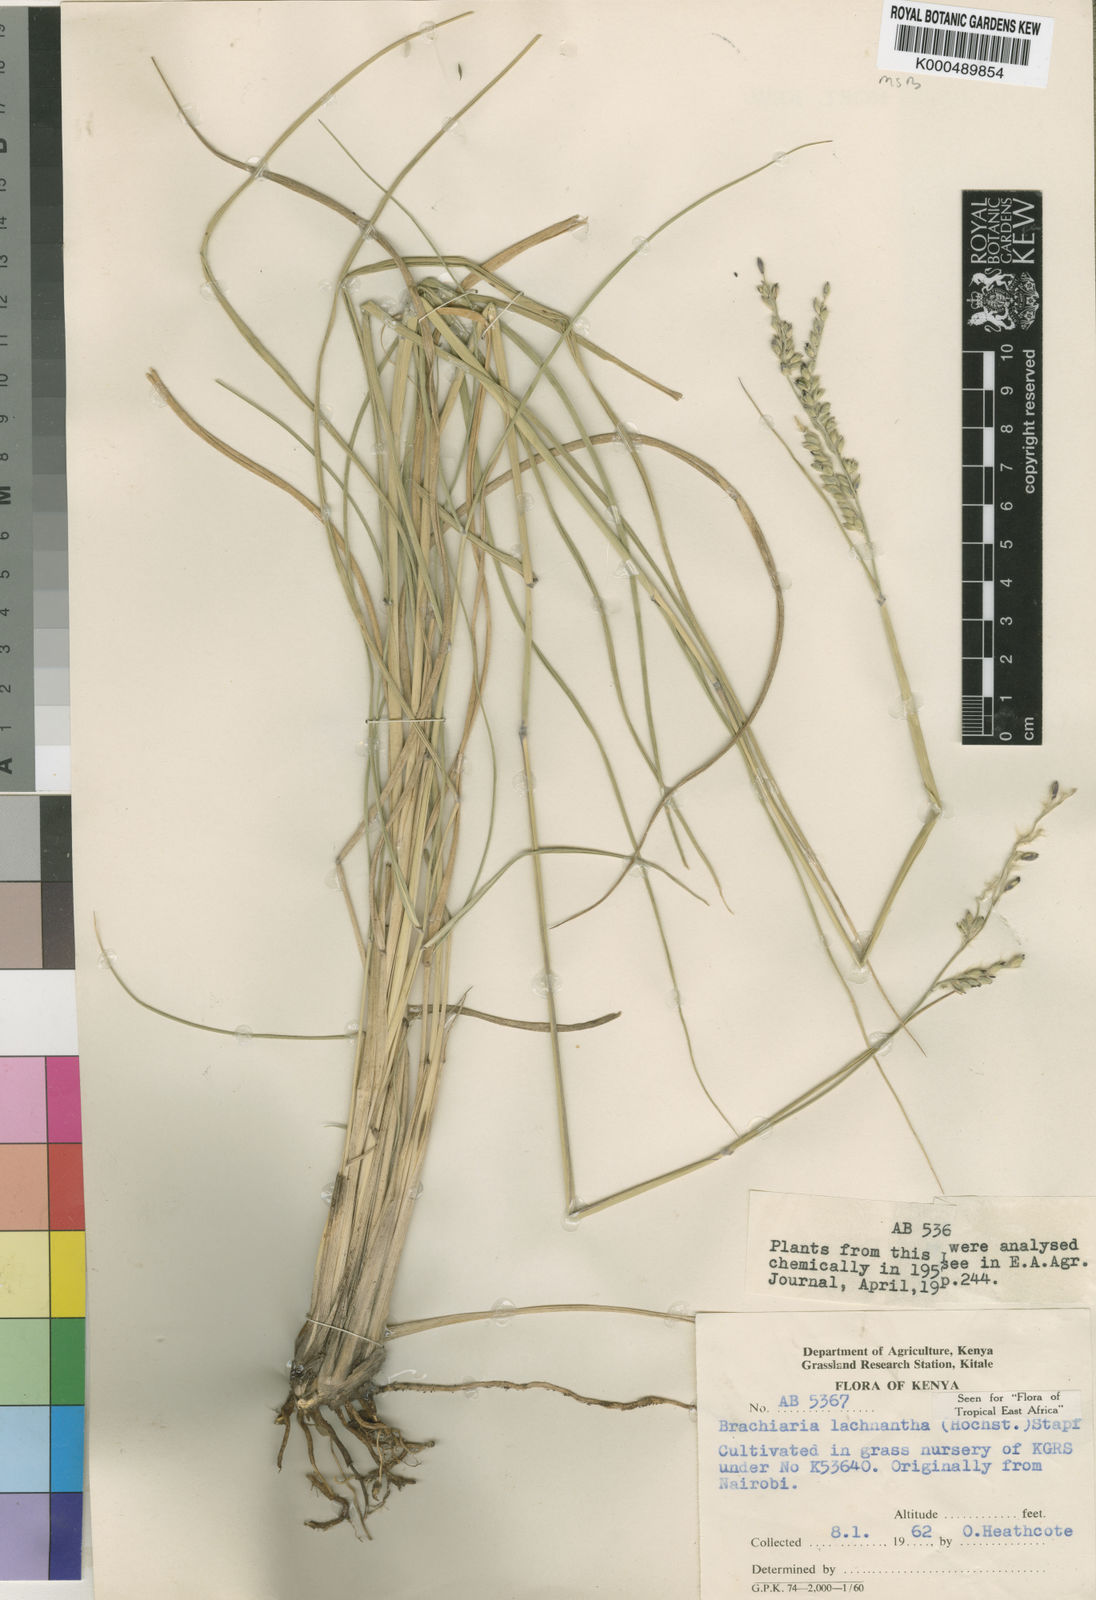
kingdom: Plantae
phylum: Tracheophyta
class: Liliopsida
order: Poales
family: Poaceae
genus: Urochloa
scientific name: Urochloa lachnantha
